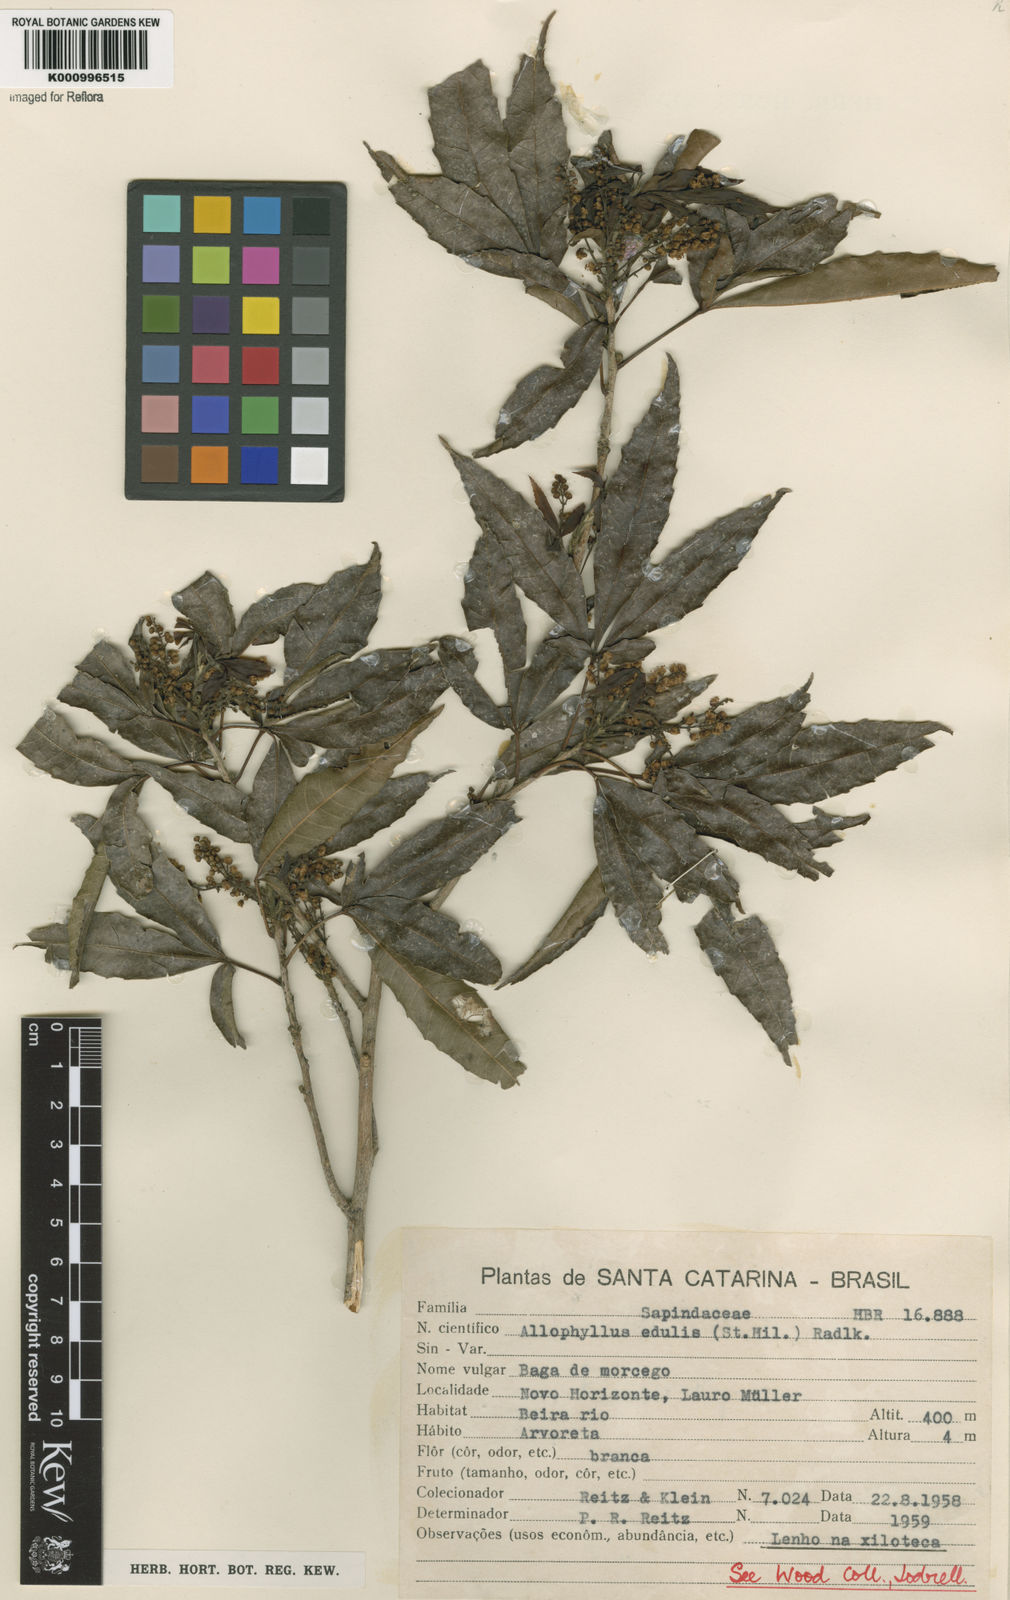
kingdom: Plantae
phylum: Tracheophyta
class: Magnoliopsida
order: Sapindales
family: Sapindaceae
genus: Allophylus
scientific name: Allophylus edulis
